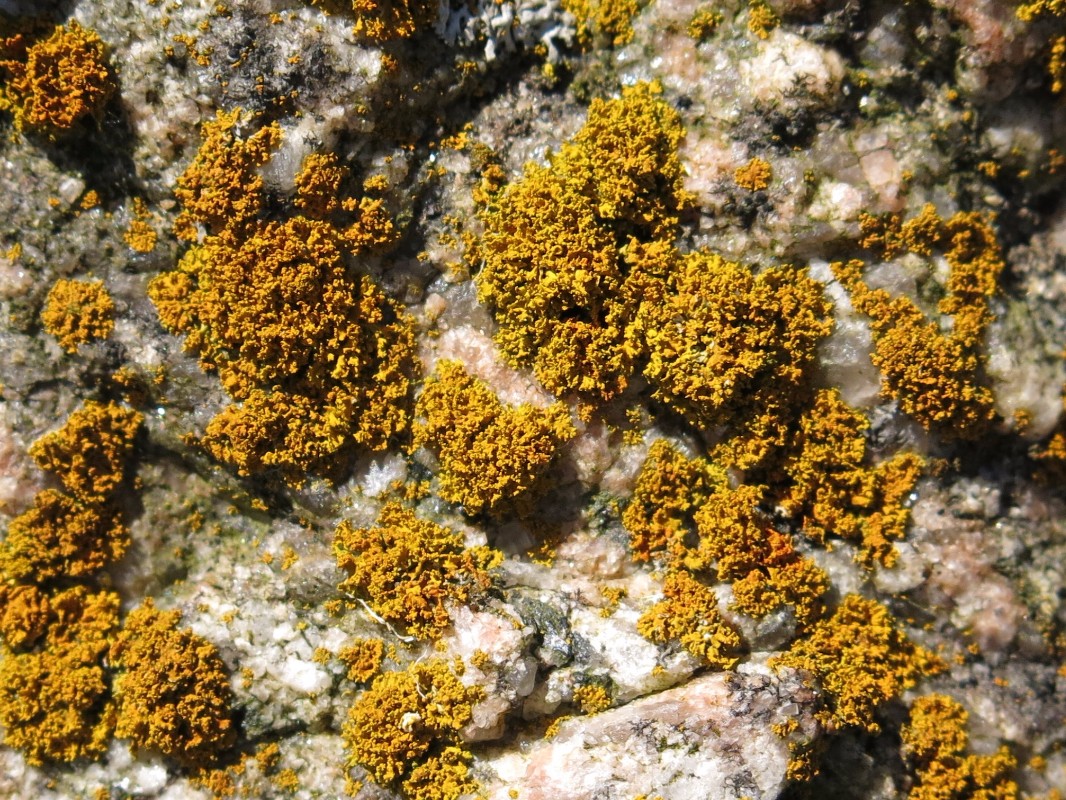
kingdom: Fungi
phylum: Ascomycota
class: Lecanoromycetes
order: Teloschistales
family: Teloschistaceae
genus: Polycauliona
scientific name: Polycauliona candelaria
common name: tue-orangelav
